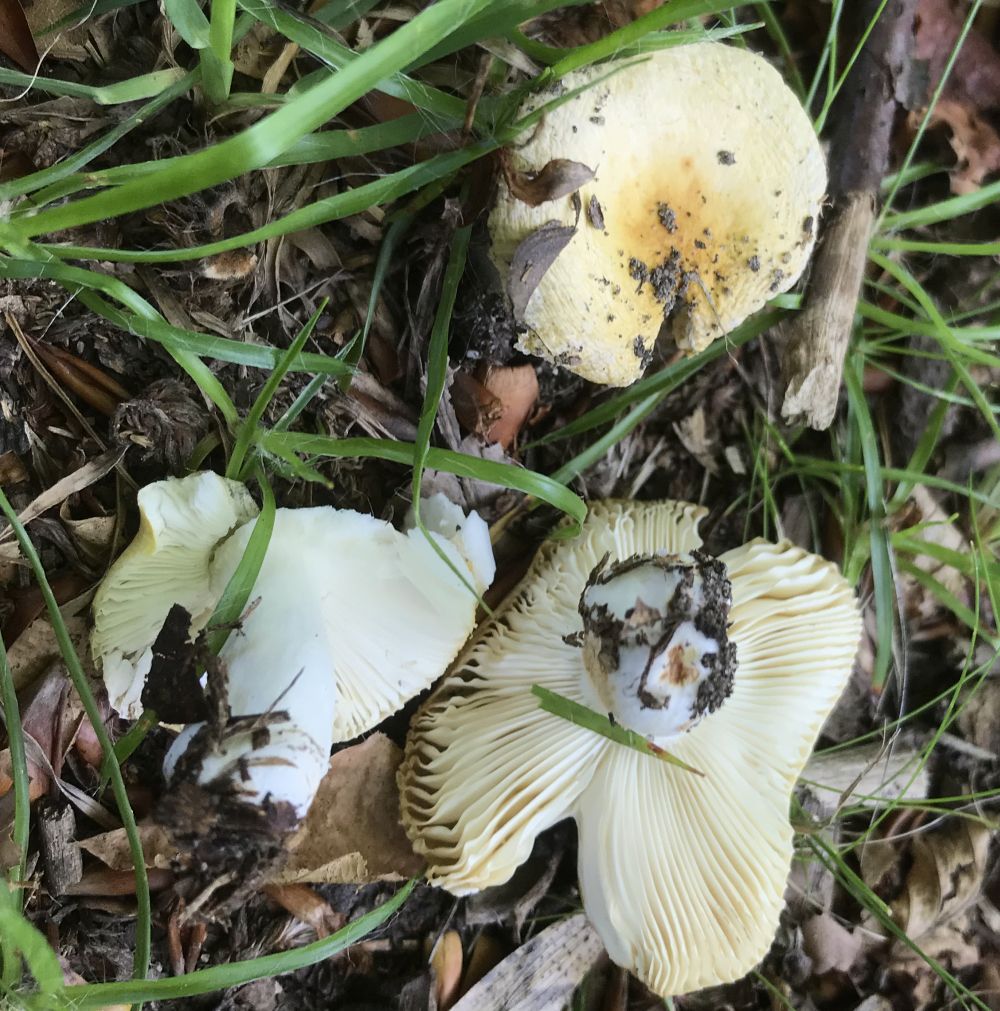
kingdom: Fungi
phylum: Basidiomycota
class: Agaricomycetes
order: Russulales
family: Russulaceae
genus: Russula
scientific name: Russula solaris
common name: sol-skørhat
